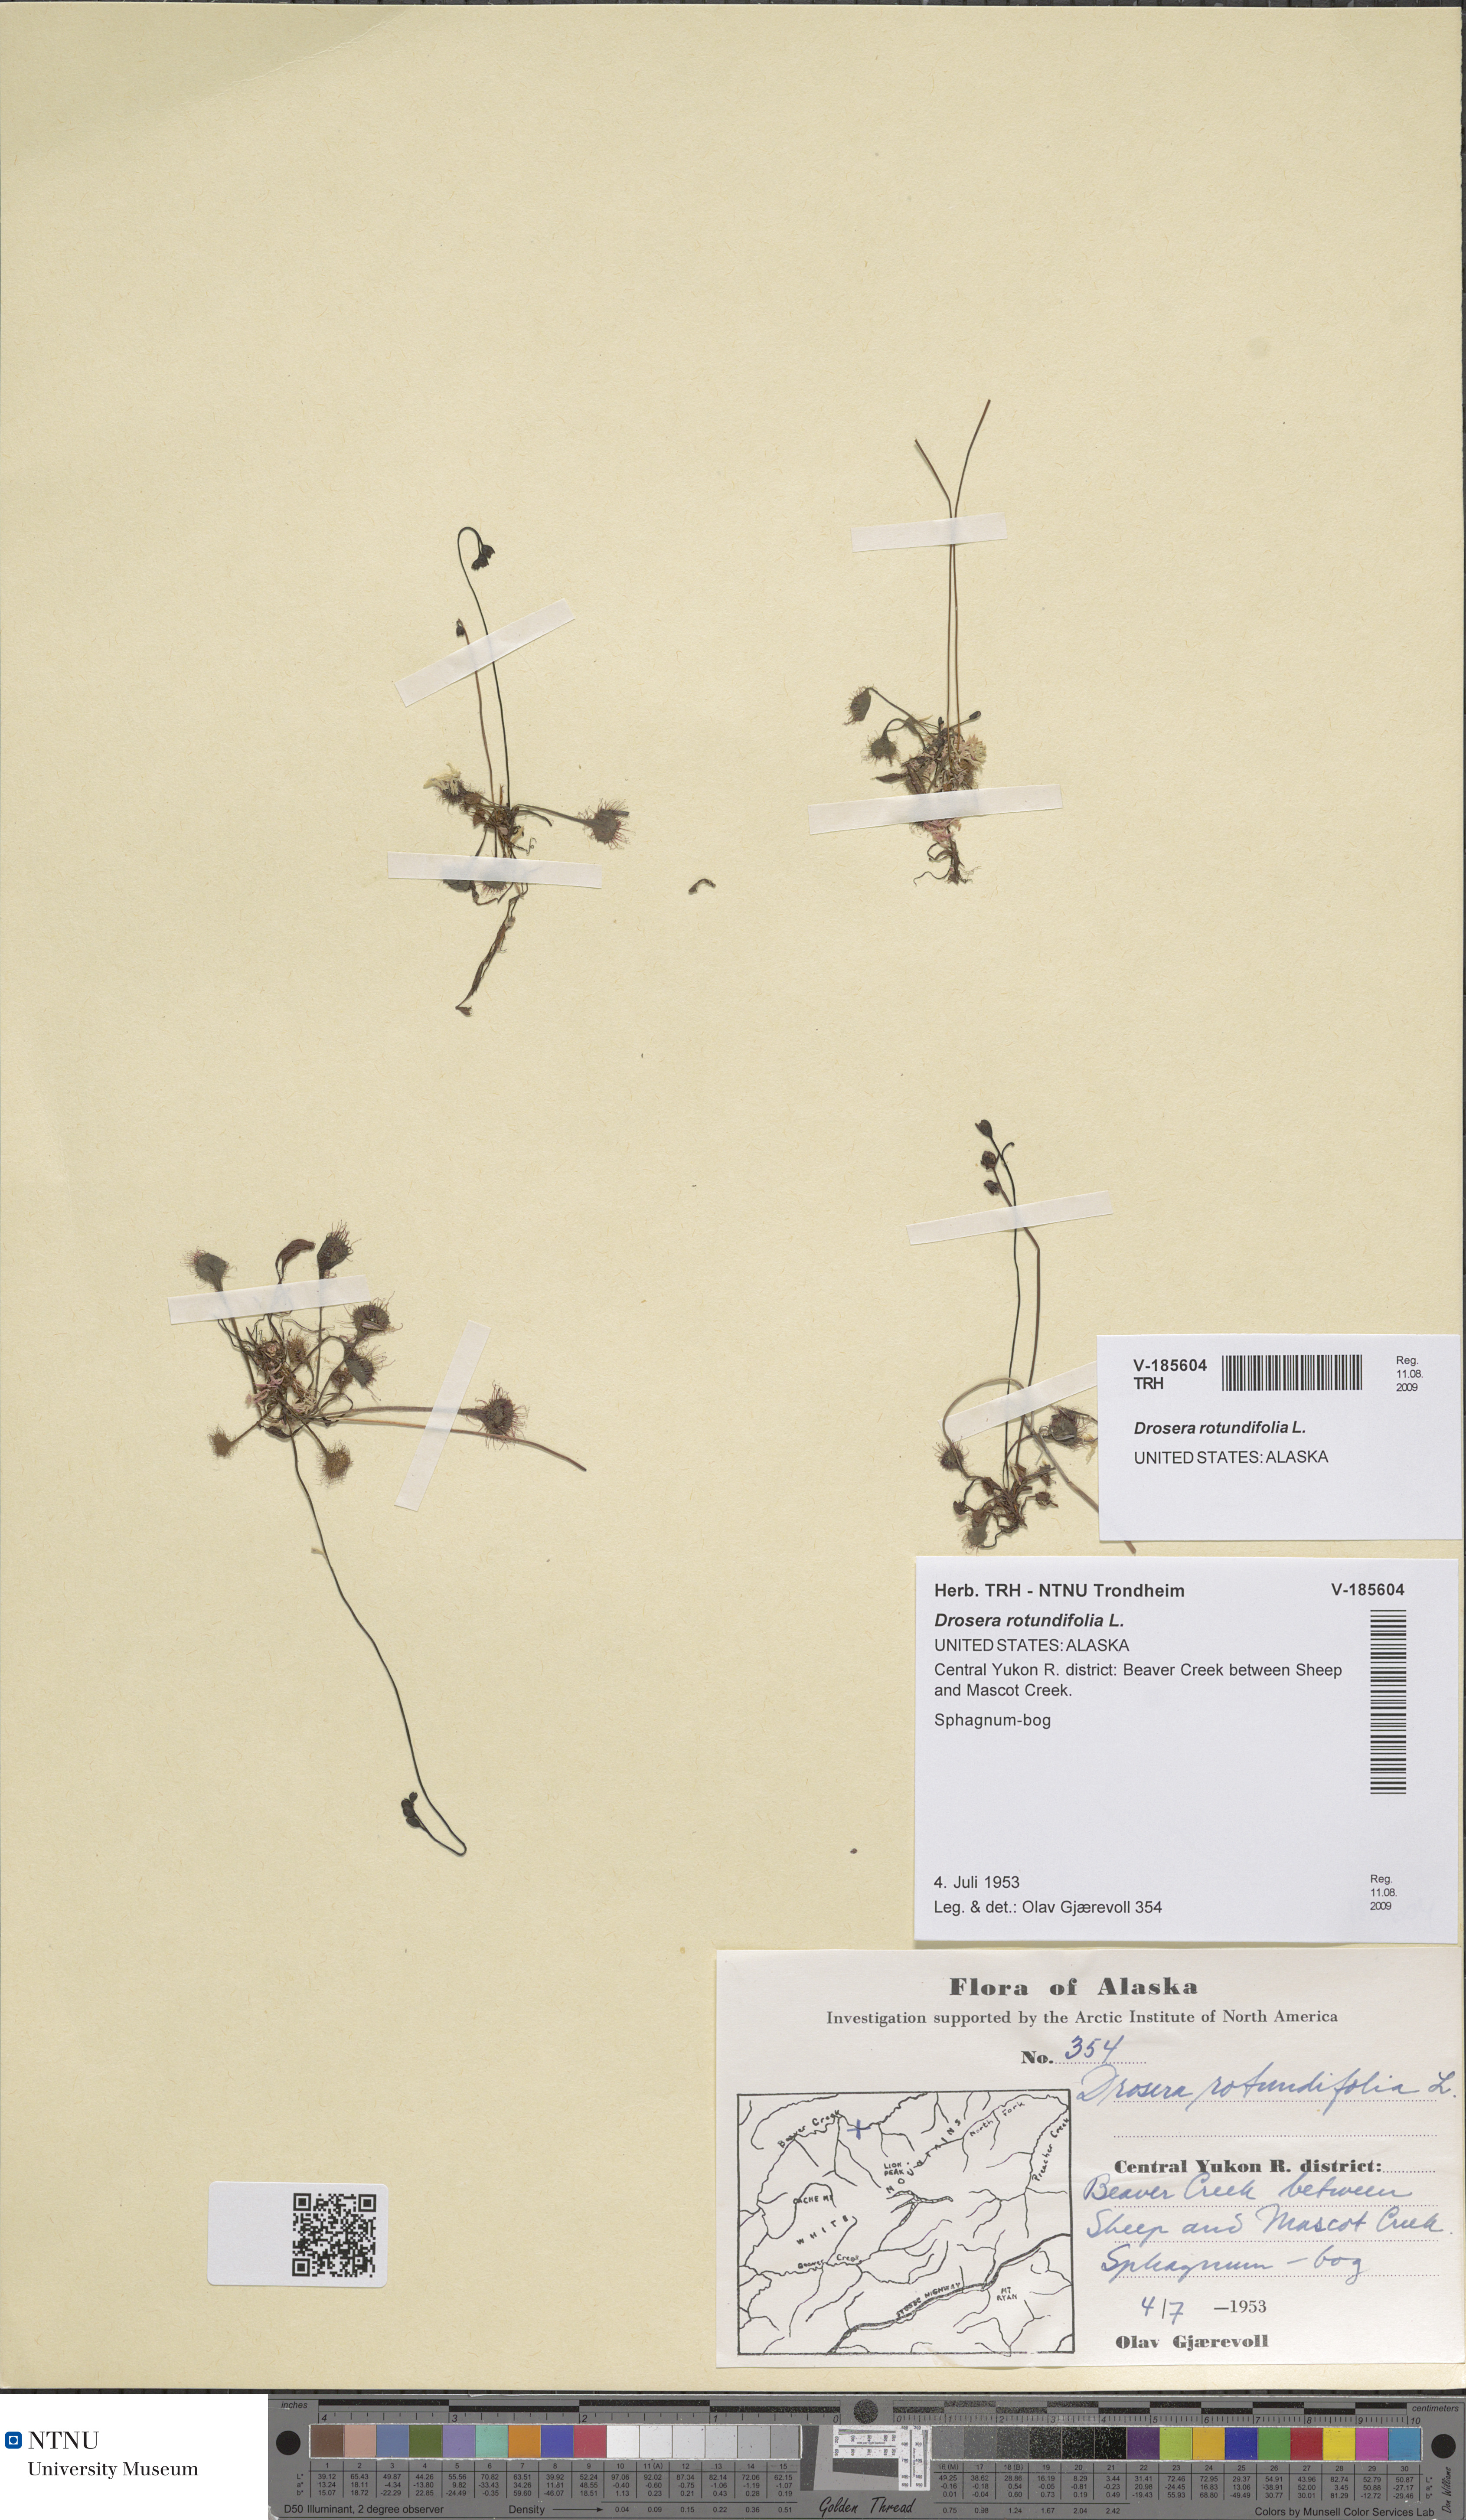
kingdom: Plantae
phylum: Tracheophyta
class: Magnoliopsida
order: Caryophyllales
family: Droseraceae
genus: Drosera
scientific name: Drosera rotundifolia
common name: Round-leaved sundew
